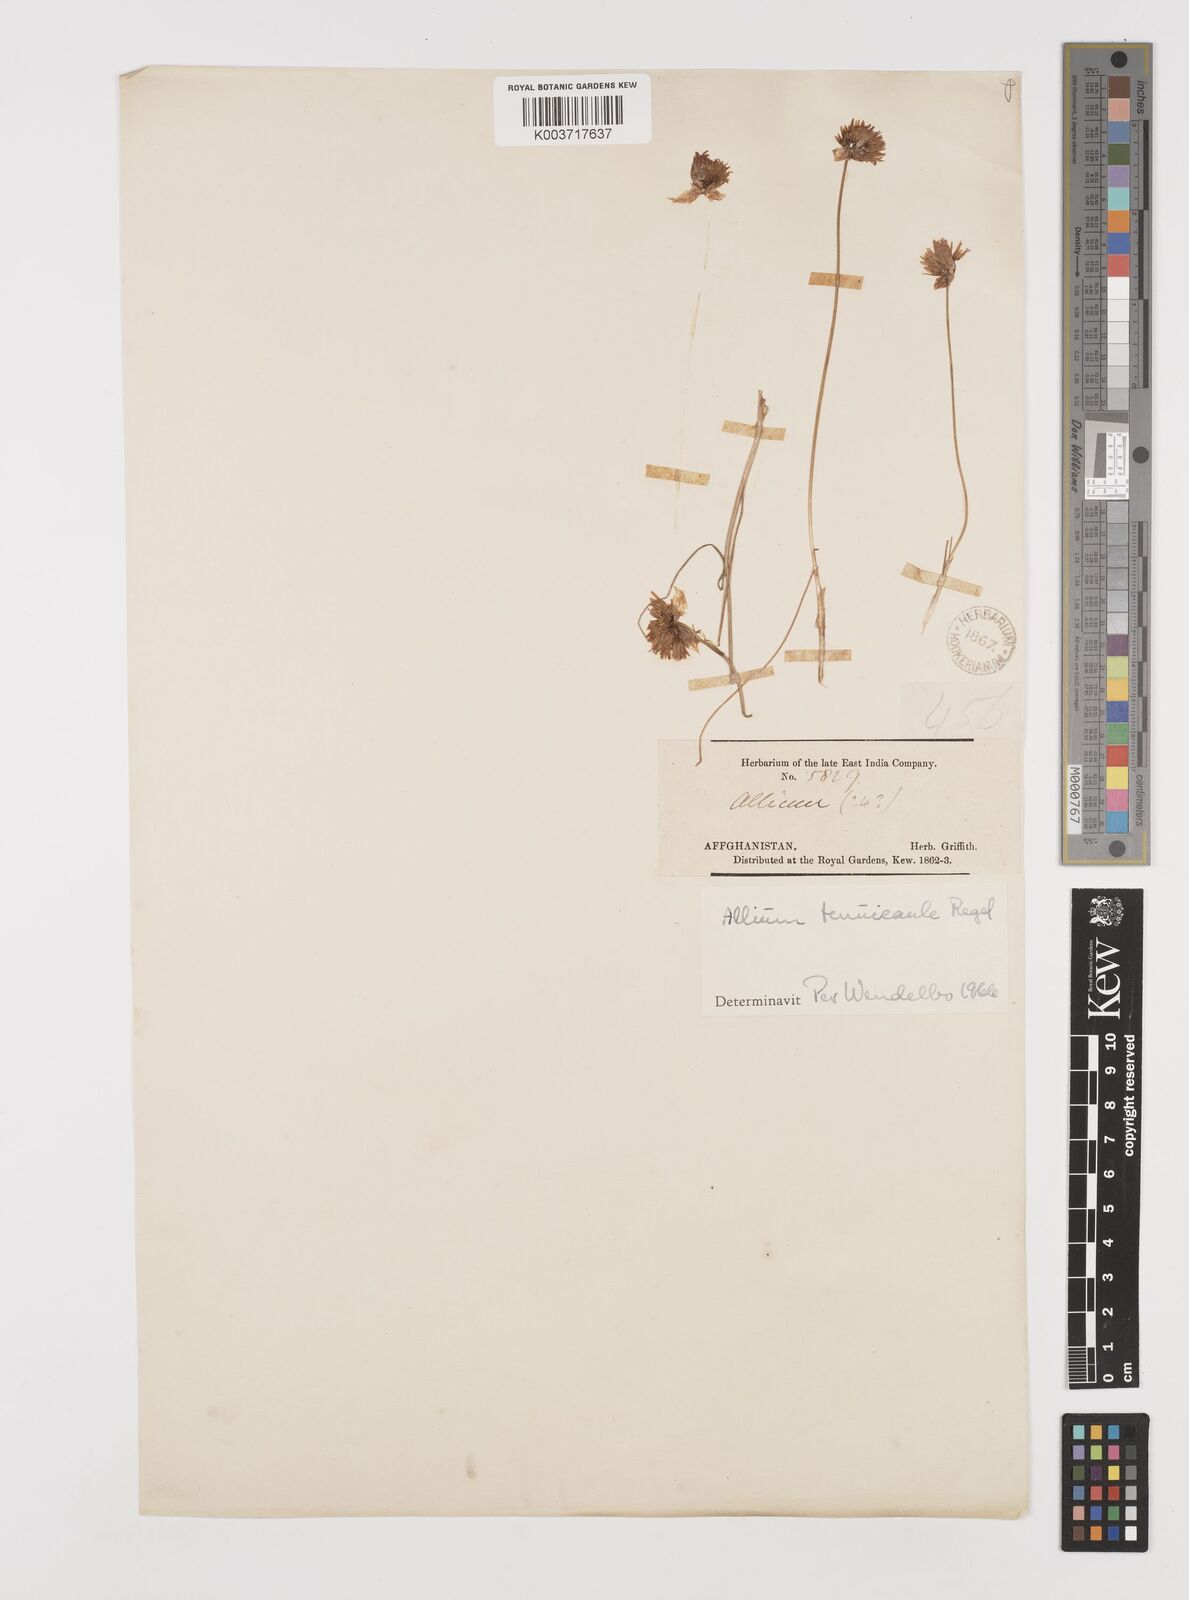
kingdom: Plantae
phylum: Tracheophyta
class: Liliopsida
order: Asparagales
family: Amaryllidaceae
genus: Allium
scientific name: Allium tenuicaule
